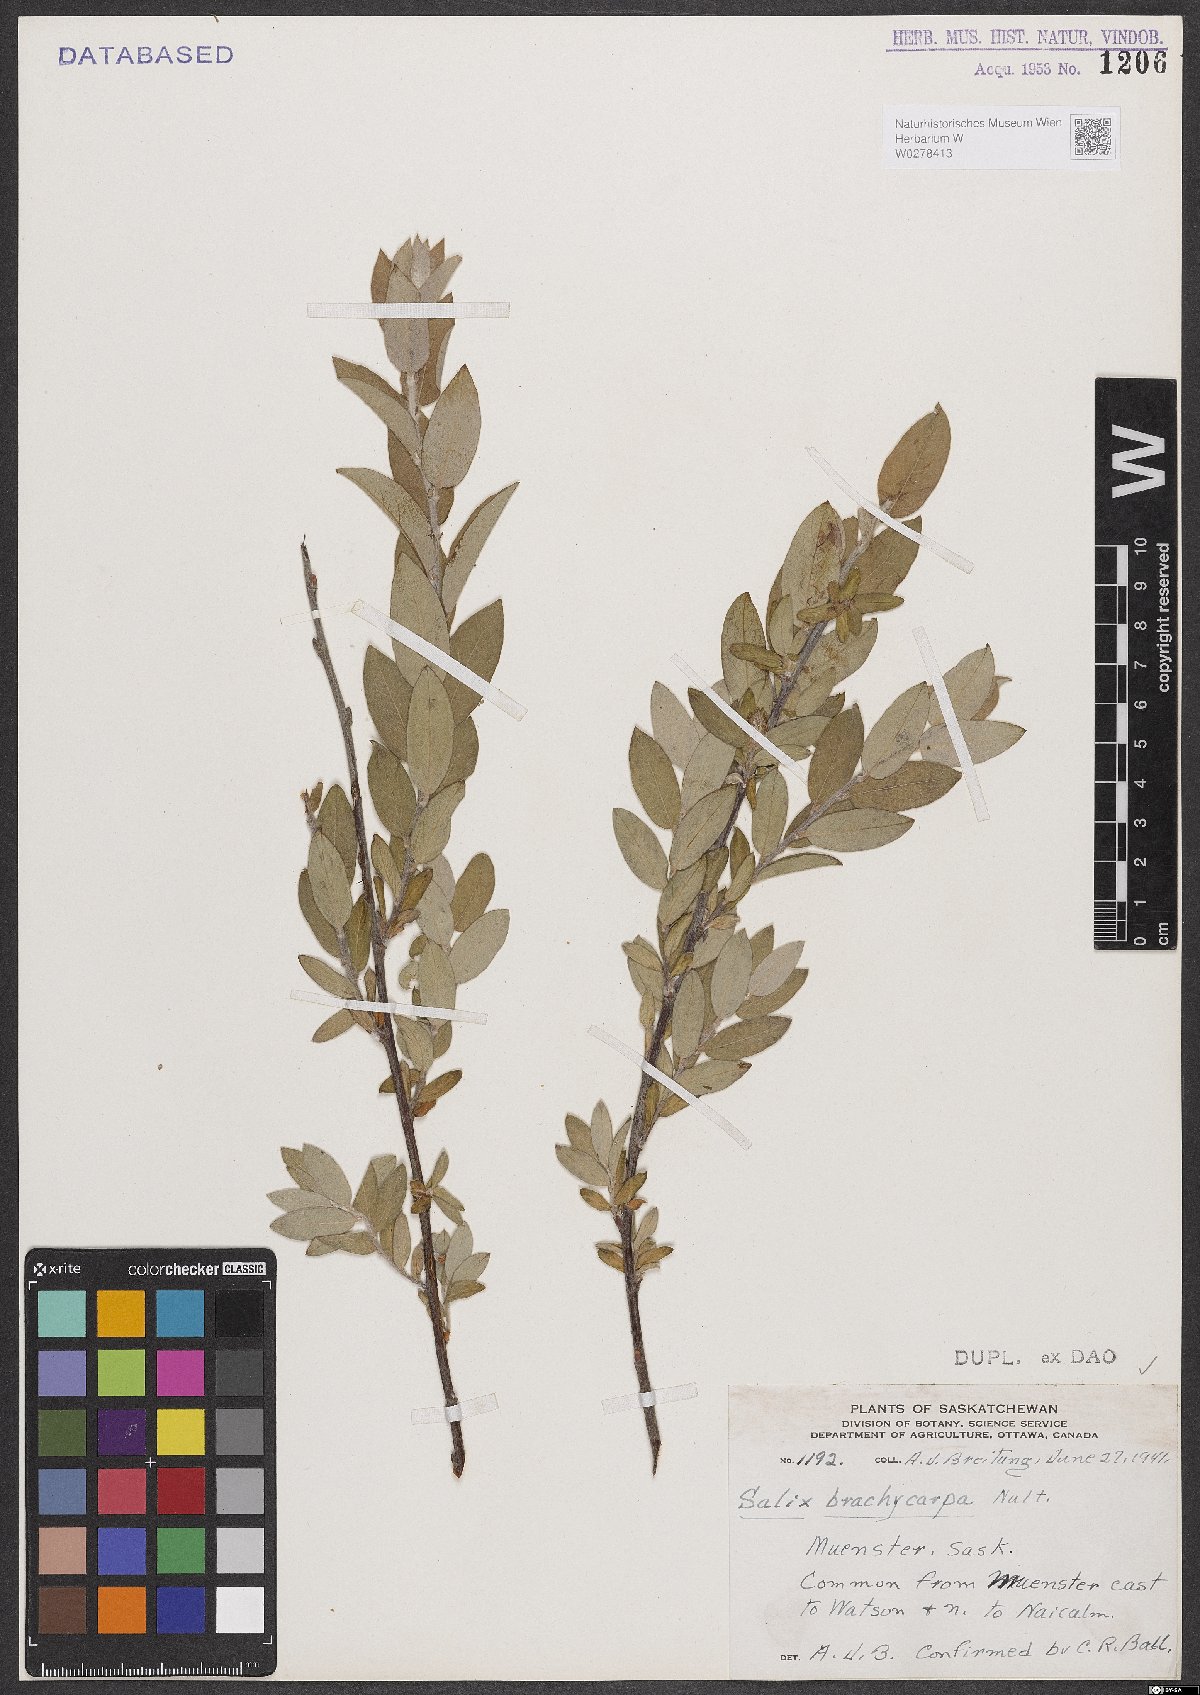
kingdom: Plantae
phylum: Tracheophyta
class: Magnoliopsida
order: Malpighiales
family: Salicaceae
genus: Salix
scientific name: Salix brachycarpa
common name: Barren-ground willow
